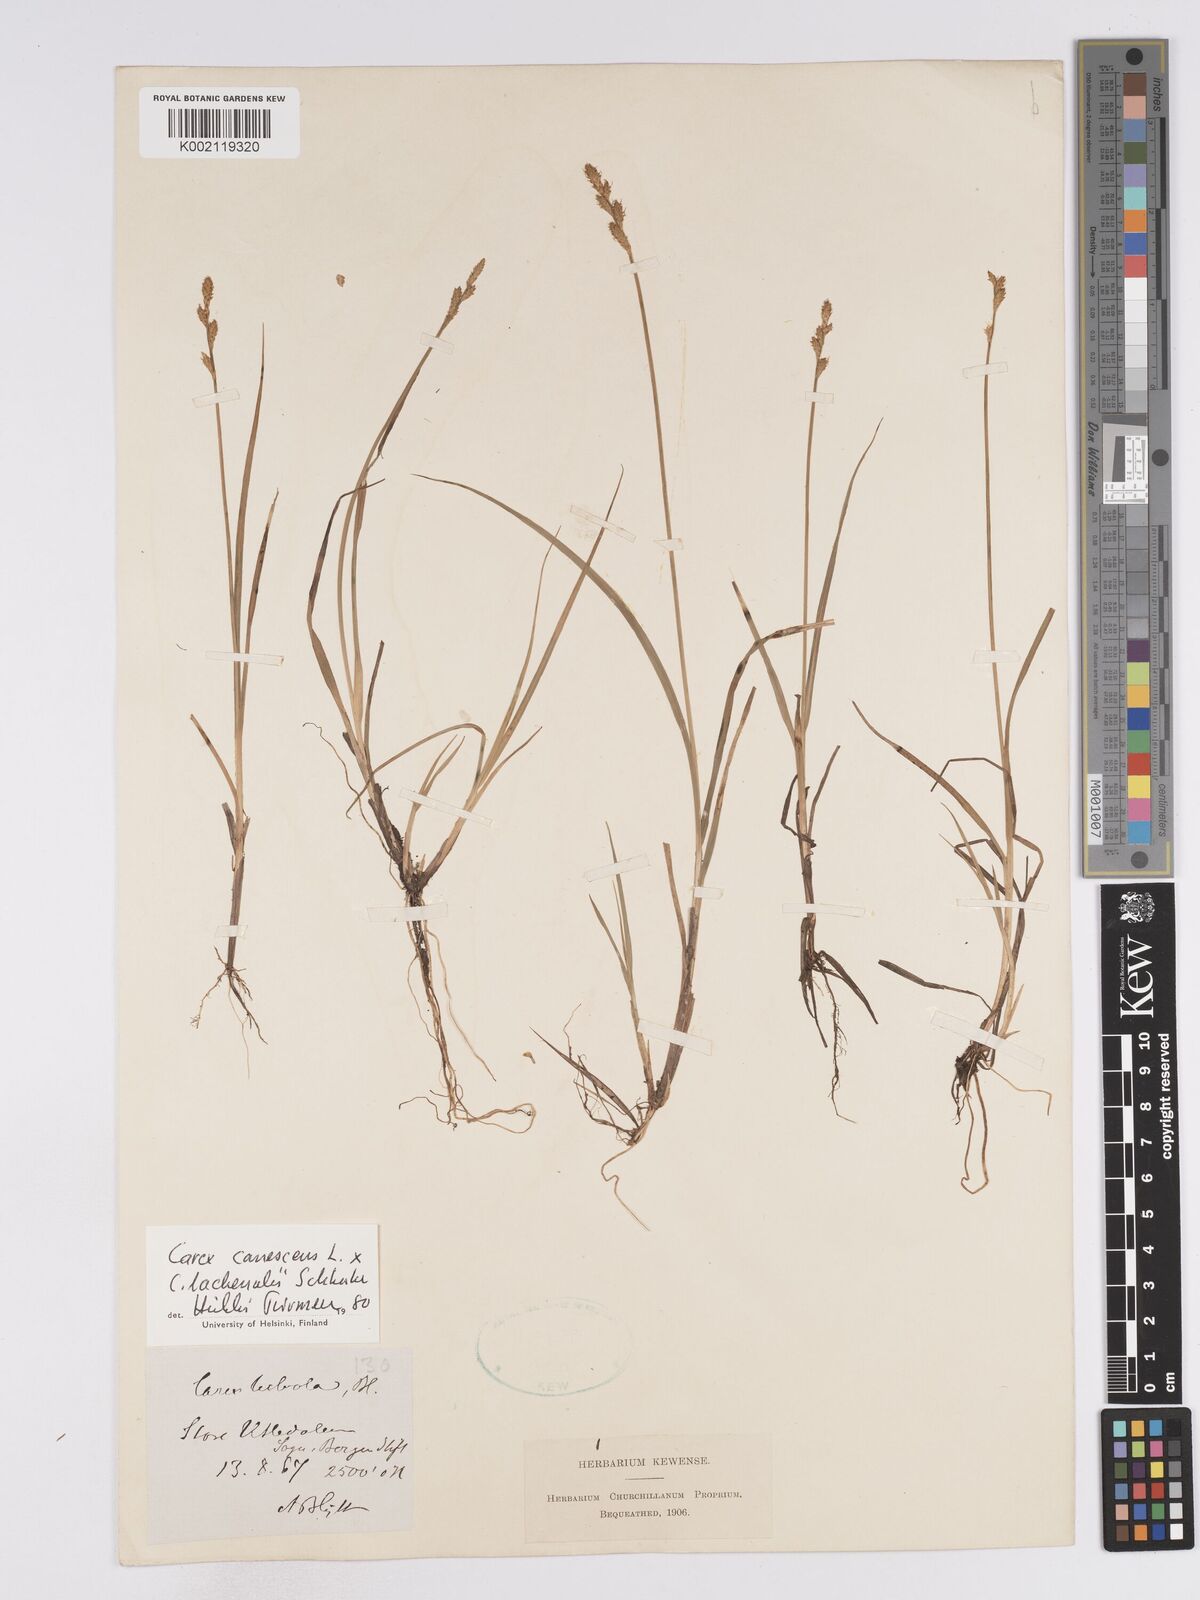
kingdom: Plantae
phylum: Tracheophyta
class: Liliopsida
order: Poales
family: Cyperaceae
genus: Carex
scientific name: Carex
